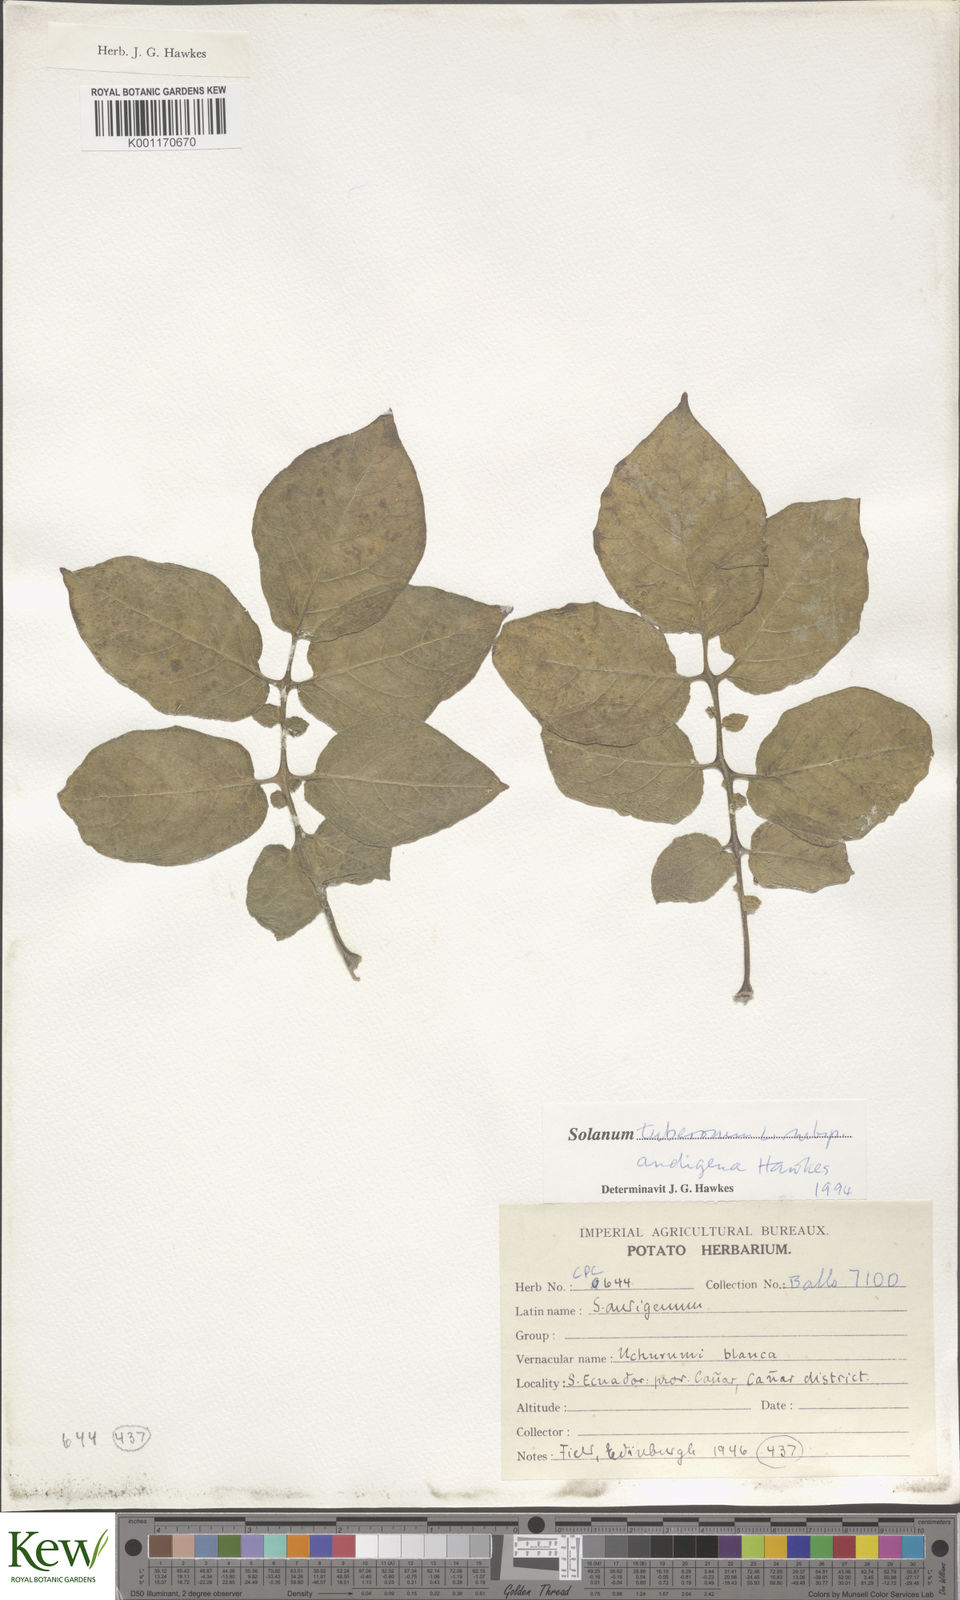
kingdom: Plantae
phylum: Tracheophyta
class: Magnoliopsida
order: Solanales
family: Solanaceae
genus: Solanum
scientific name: Solanum tuberosum
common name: Potato
